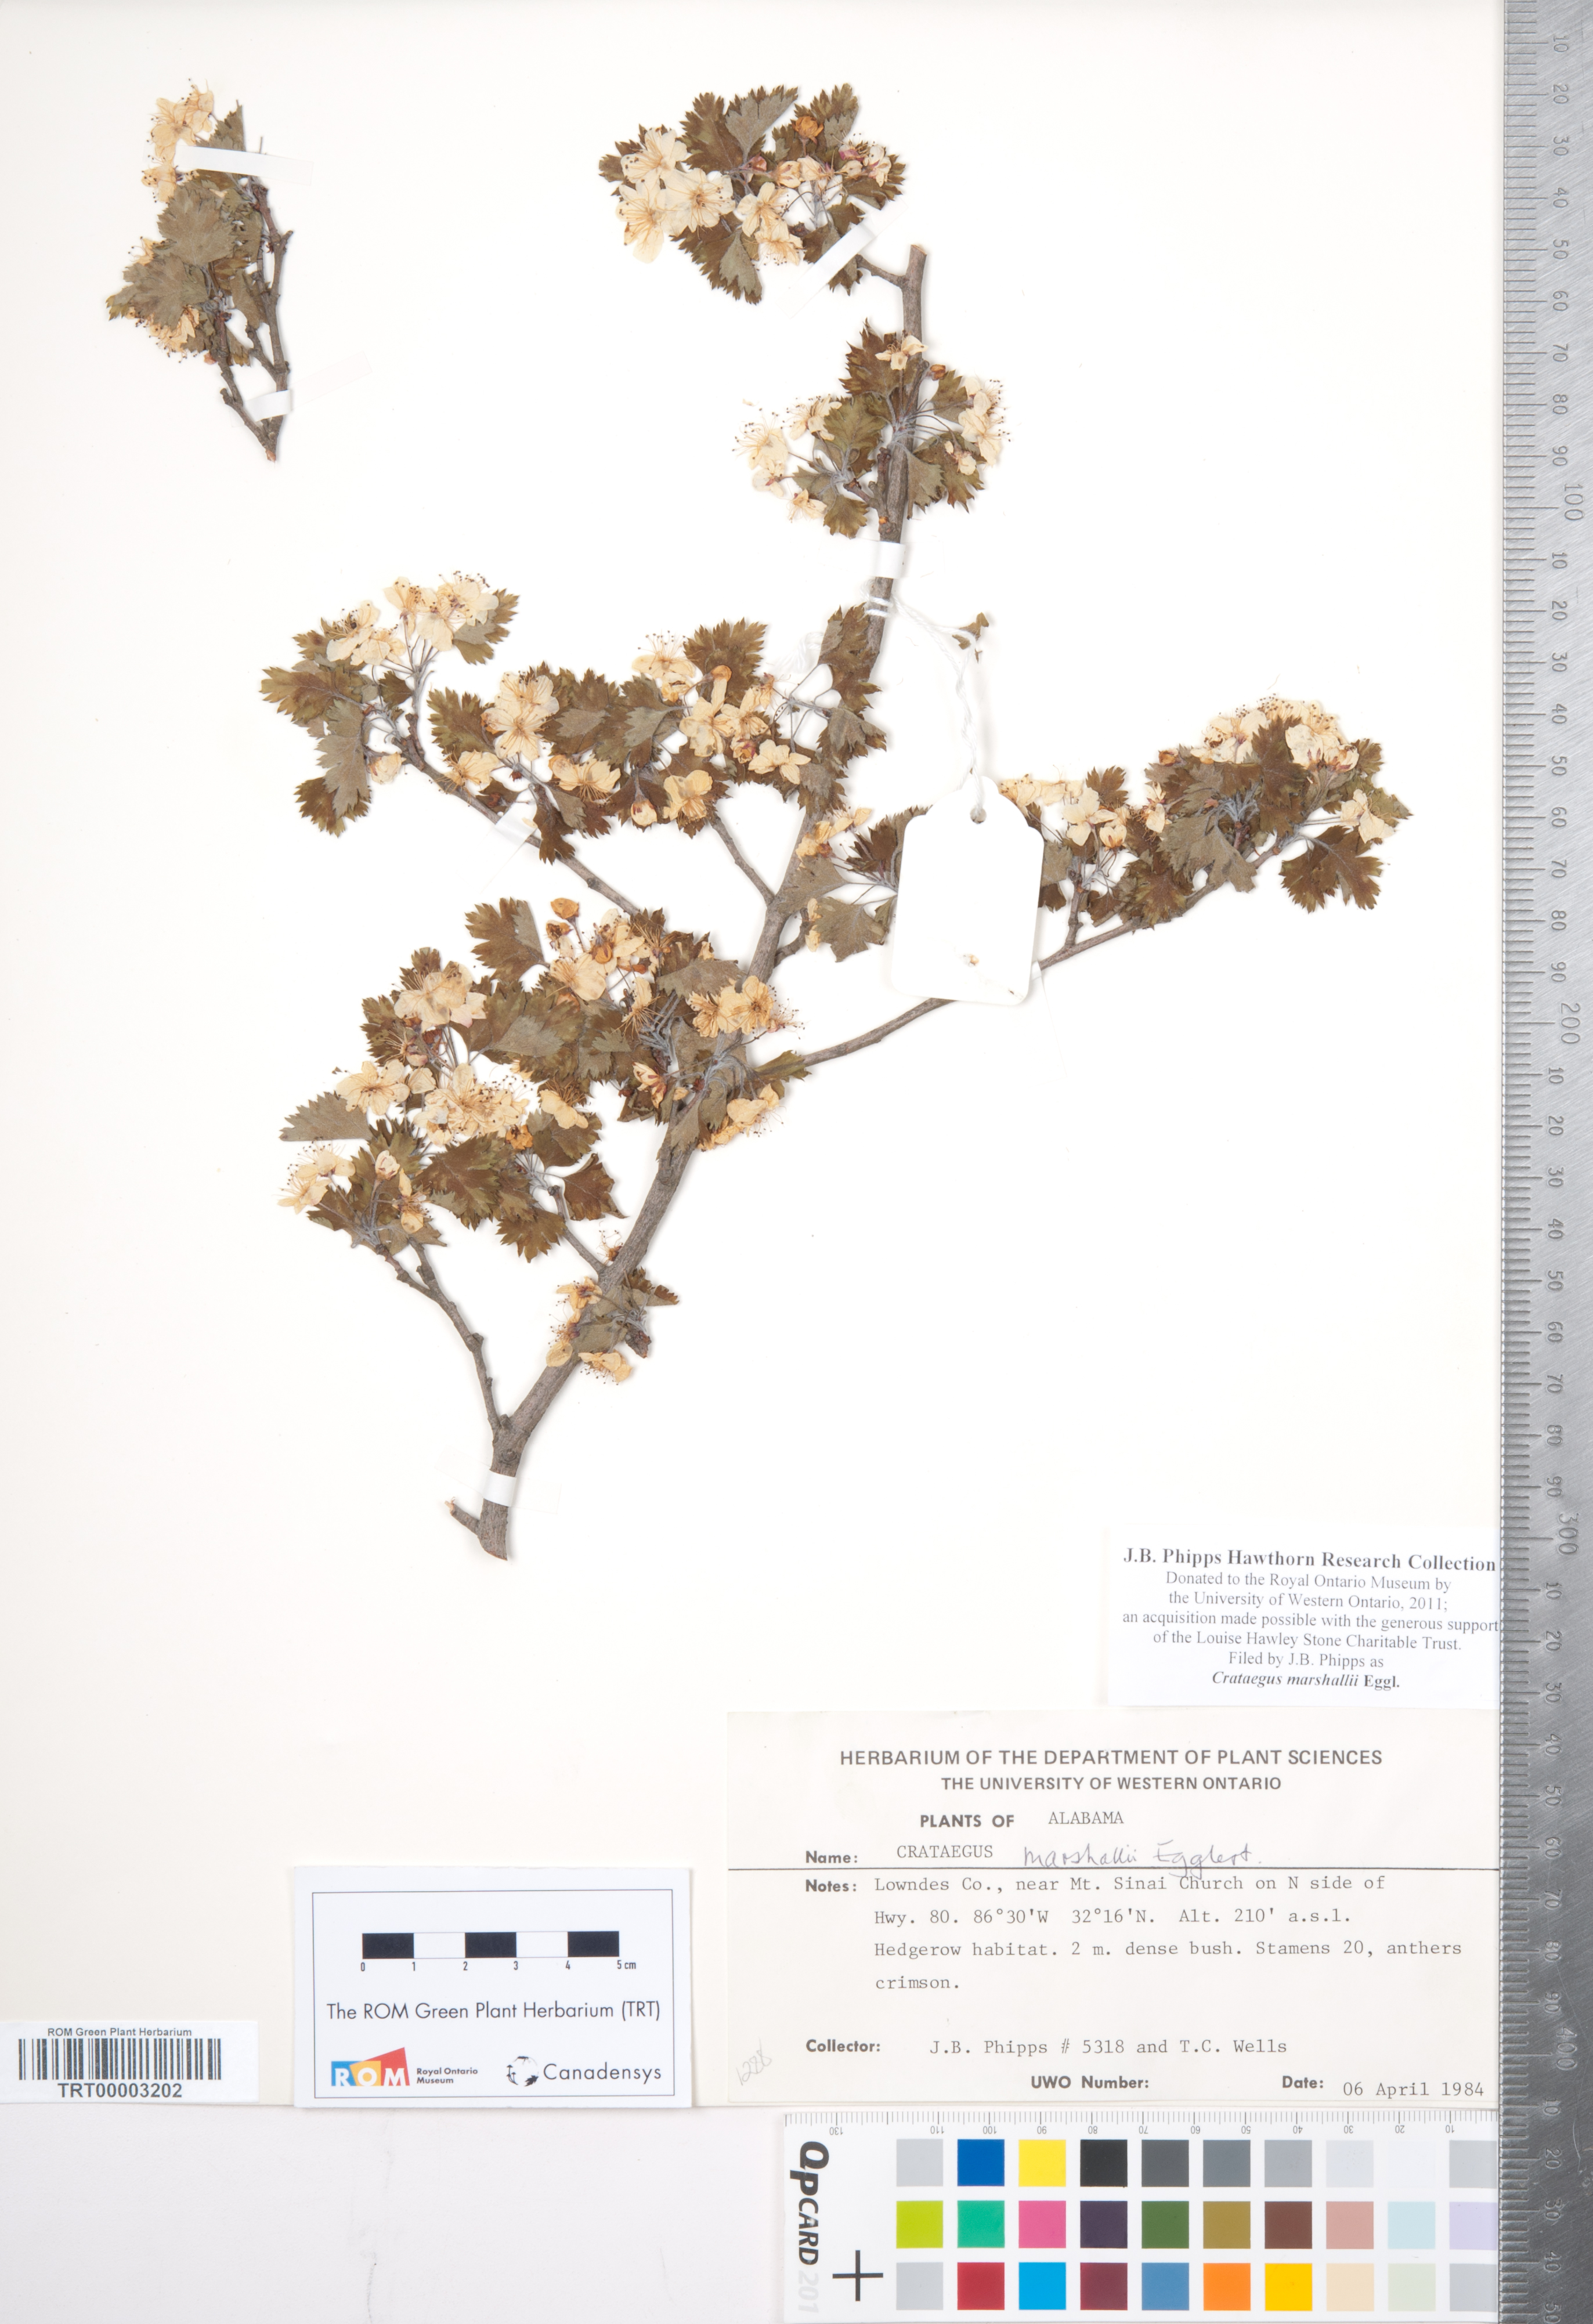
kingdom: Plantae
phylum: Tracheophyta
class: Magnoliopsida
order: Rosales
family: Rosaceae
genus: Crataegus
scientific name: Crataegus marshallii
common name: Parsley-hawthorn
